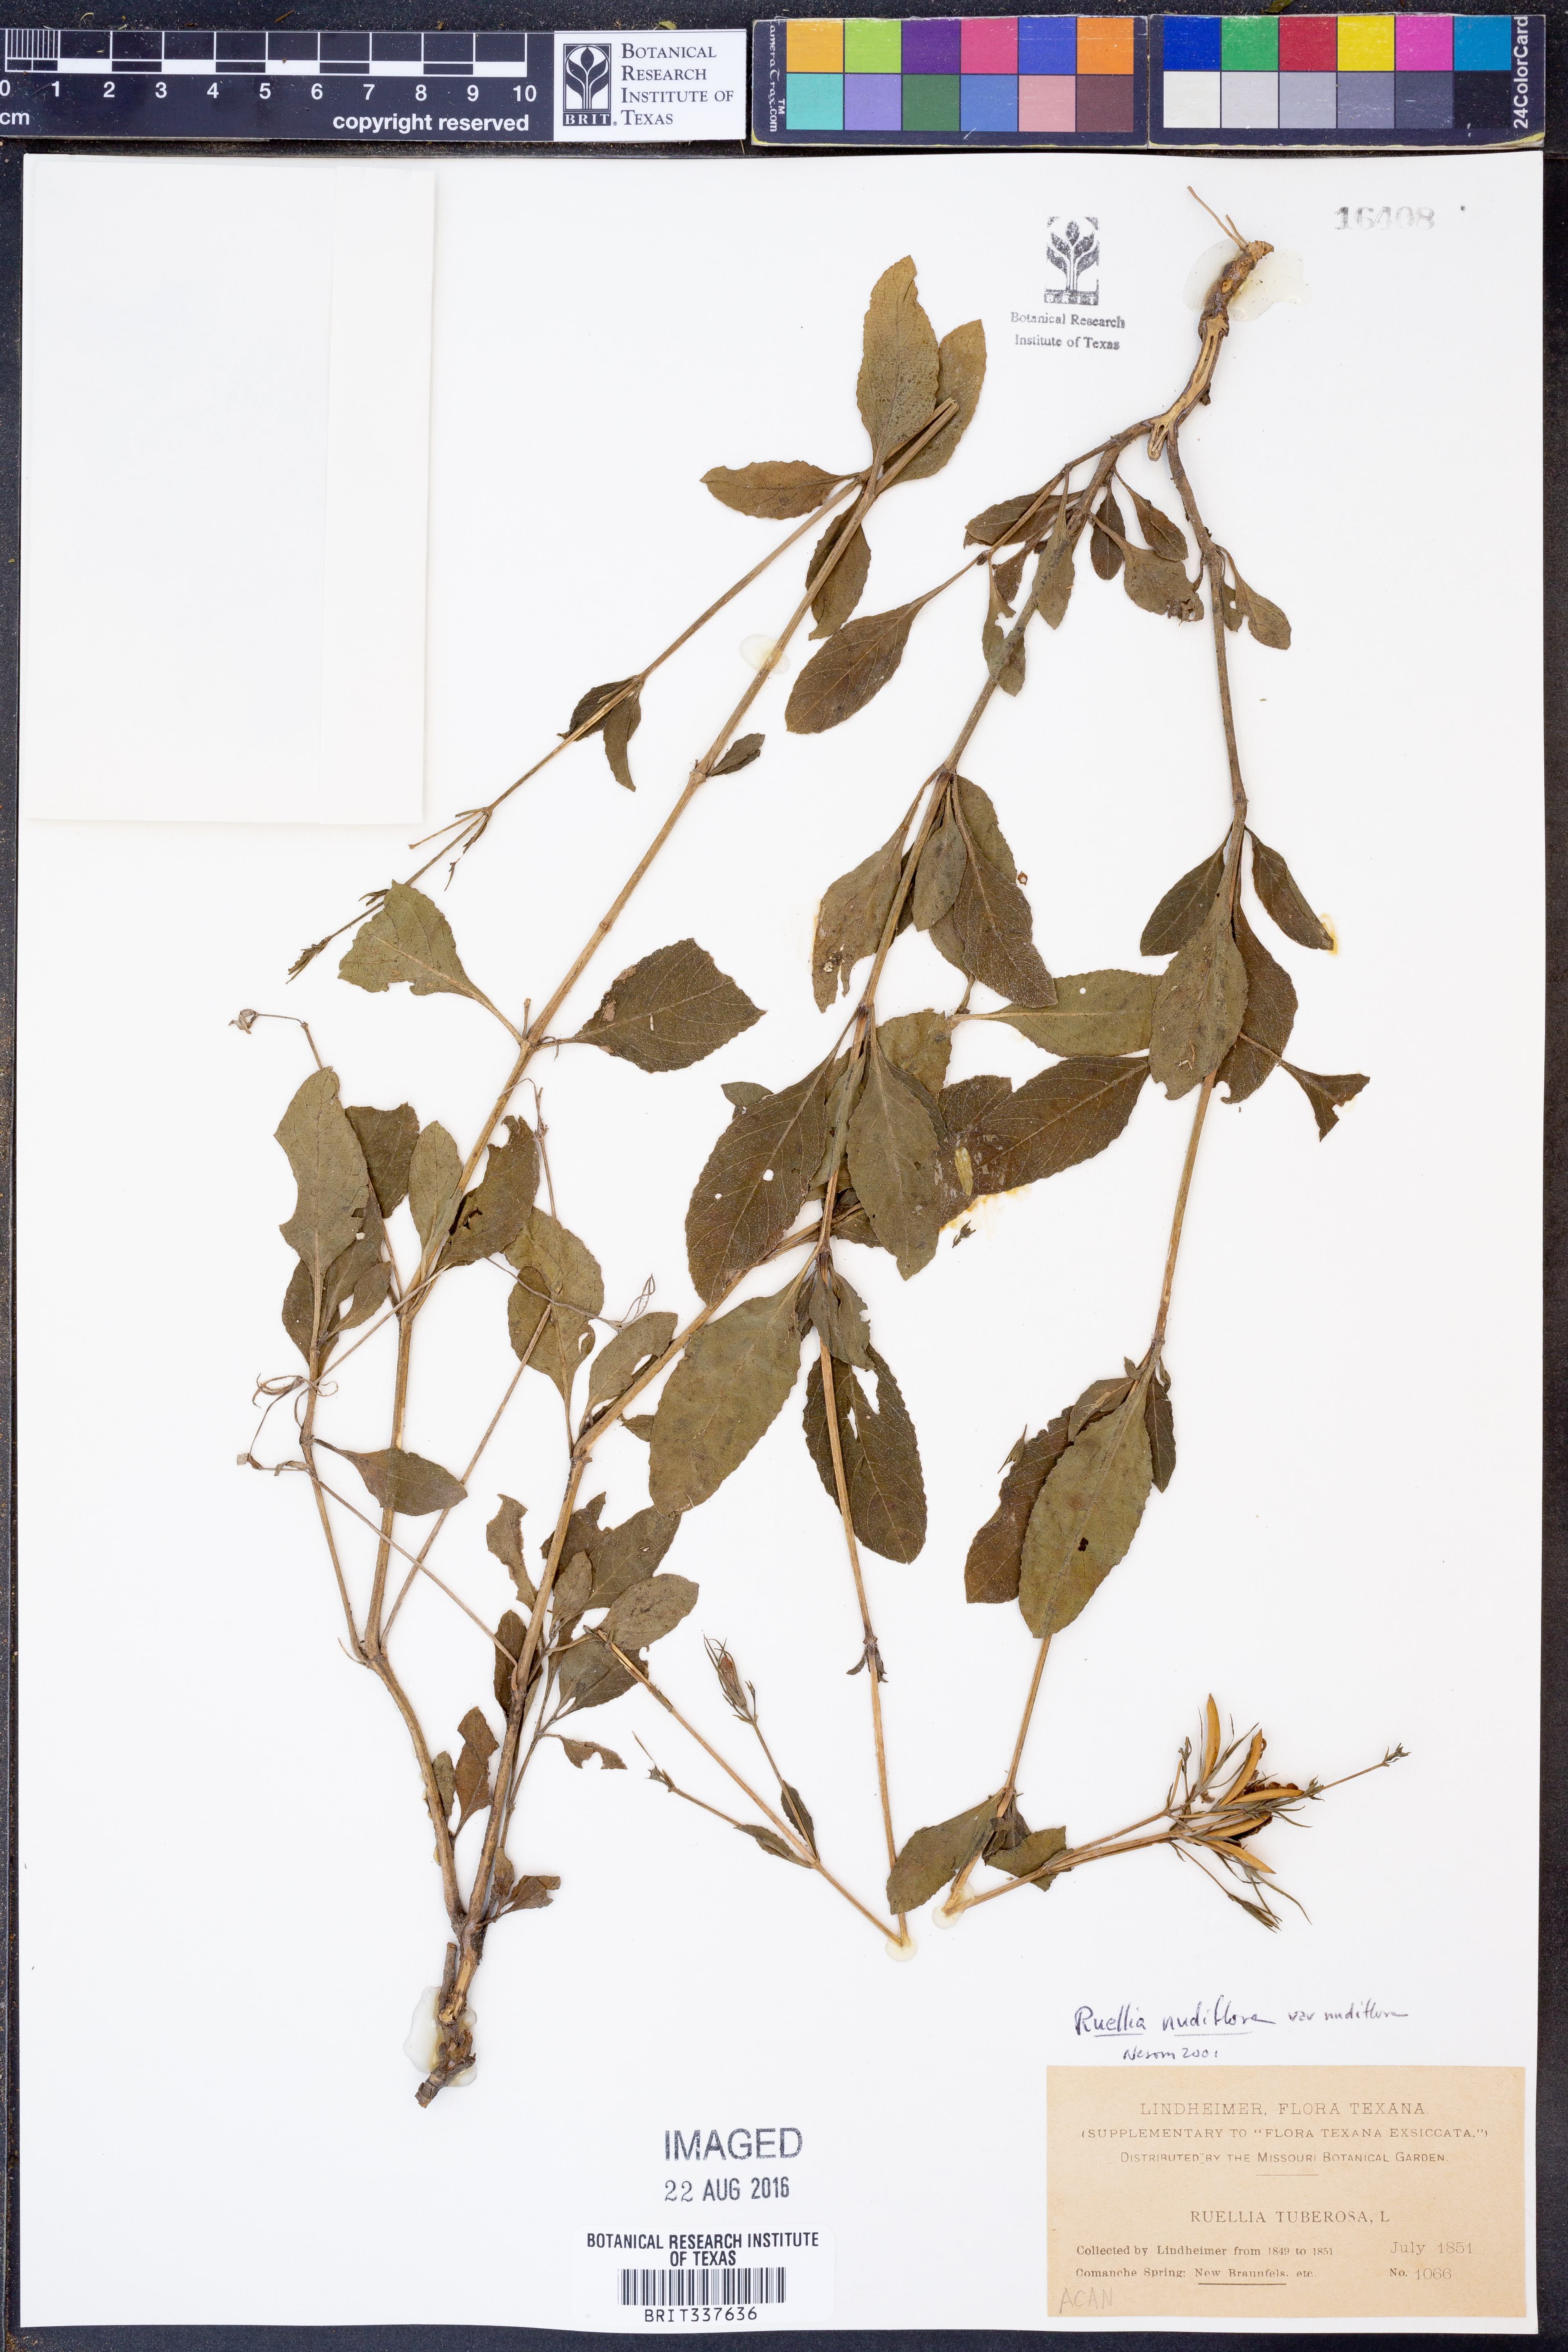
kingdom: Plantae
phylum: Tracheophyta
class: Magnoliopsida
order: Lamiales
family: Acanthaceae
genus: Ruellia
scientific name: Ruellia ciliatiflora
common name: Hairyflower wild petunia
